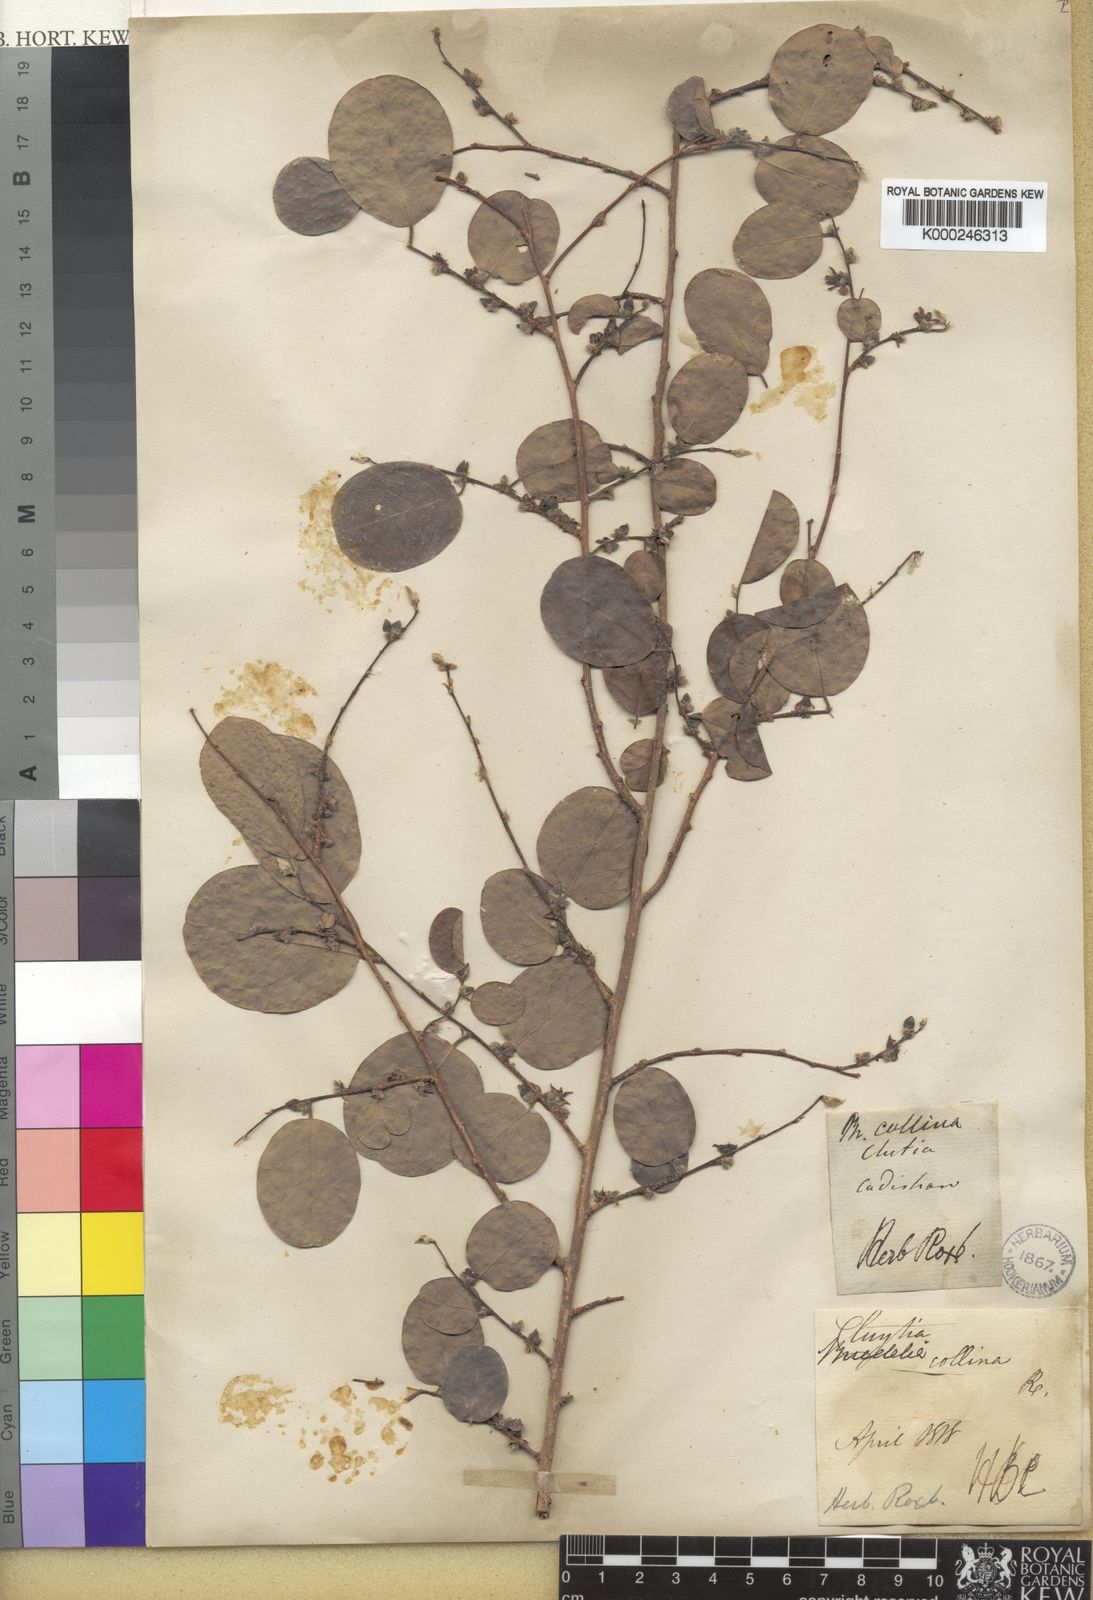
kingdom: Plantae
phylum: Tracheophyta
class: Magnoliopsida
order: Malpighiales
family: Phyllanthaceae
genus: Cleistanthus
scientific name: Cleistanthus collinus
